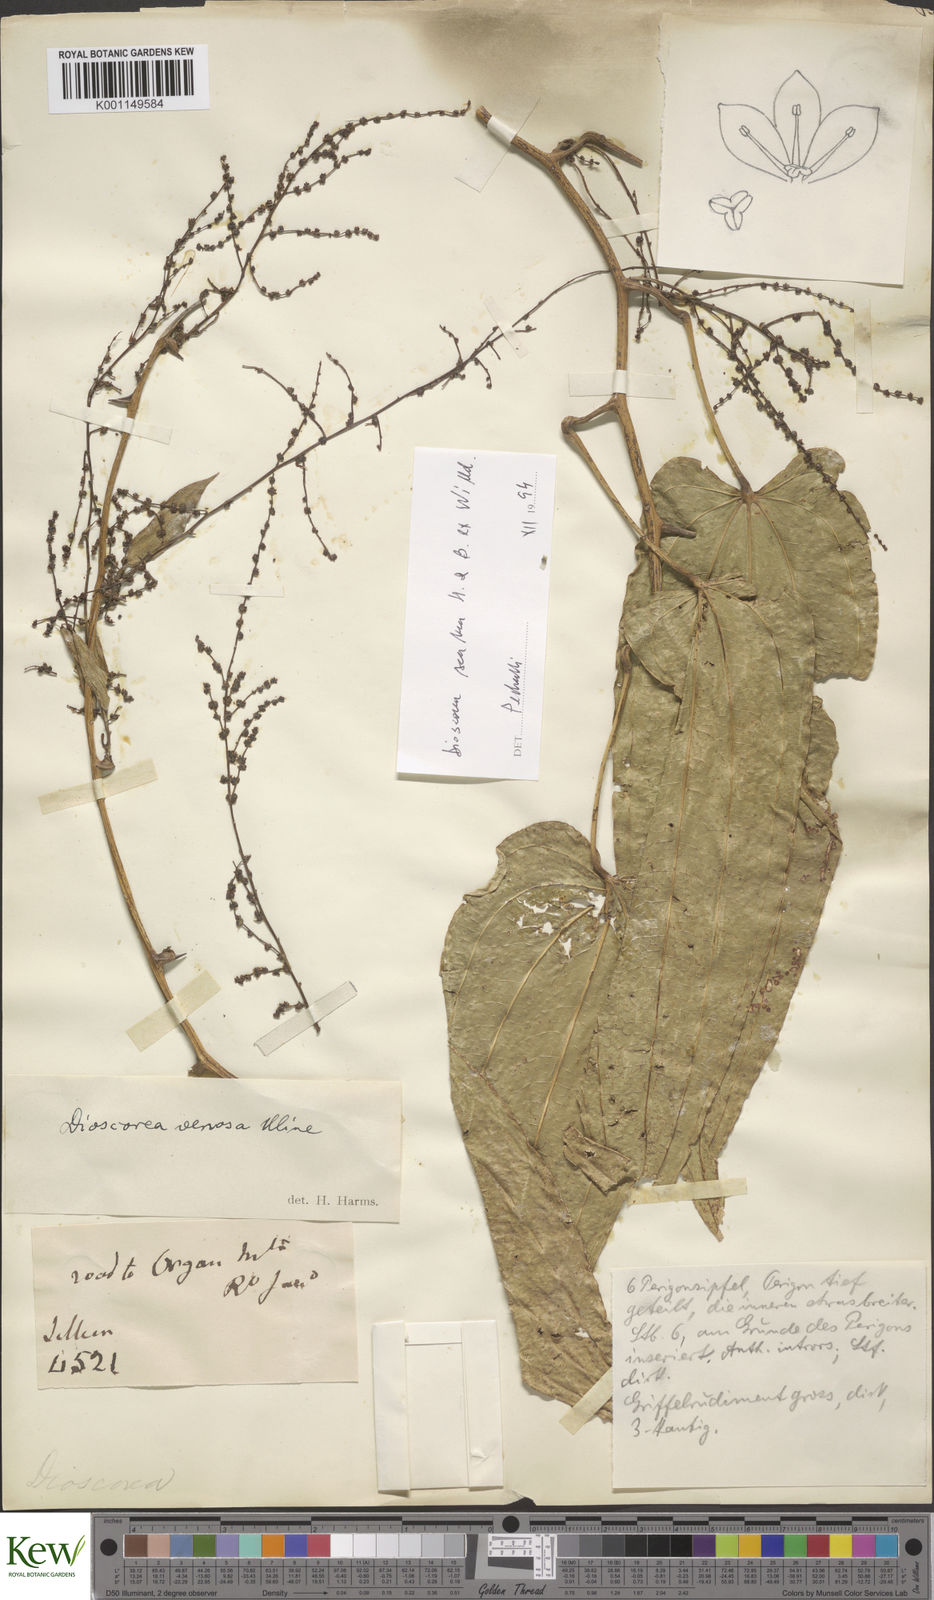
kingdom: Plantae
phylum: Tracheophyta
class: Liliopsida
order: Dioscoreales
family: Dioscoreaceae
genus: Dioscorea
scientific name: Dioscorea fodinarum
